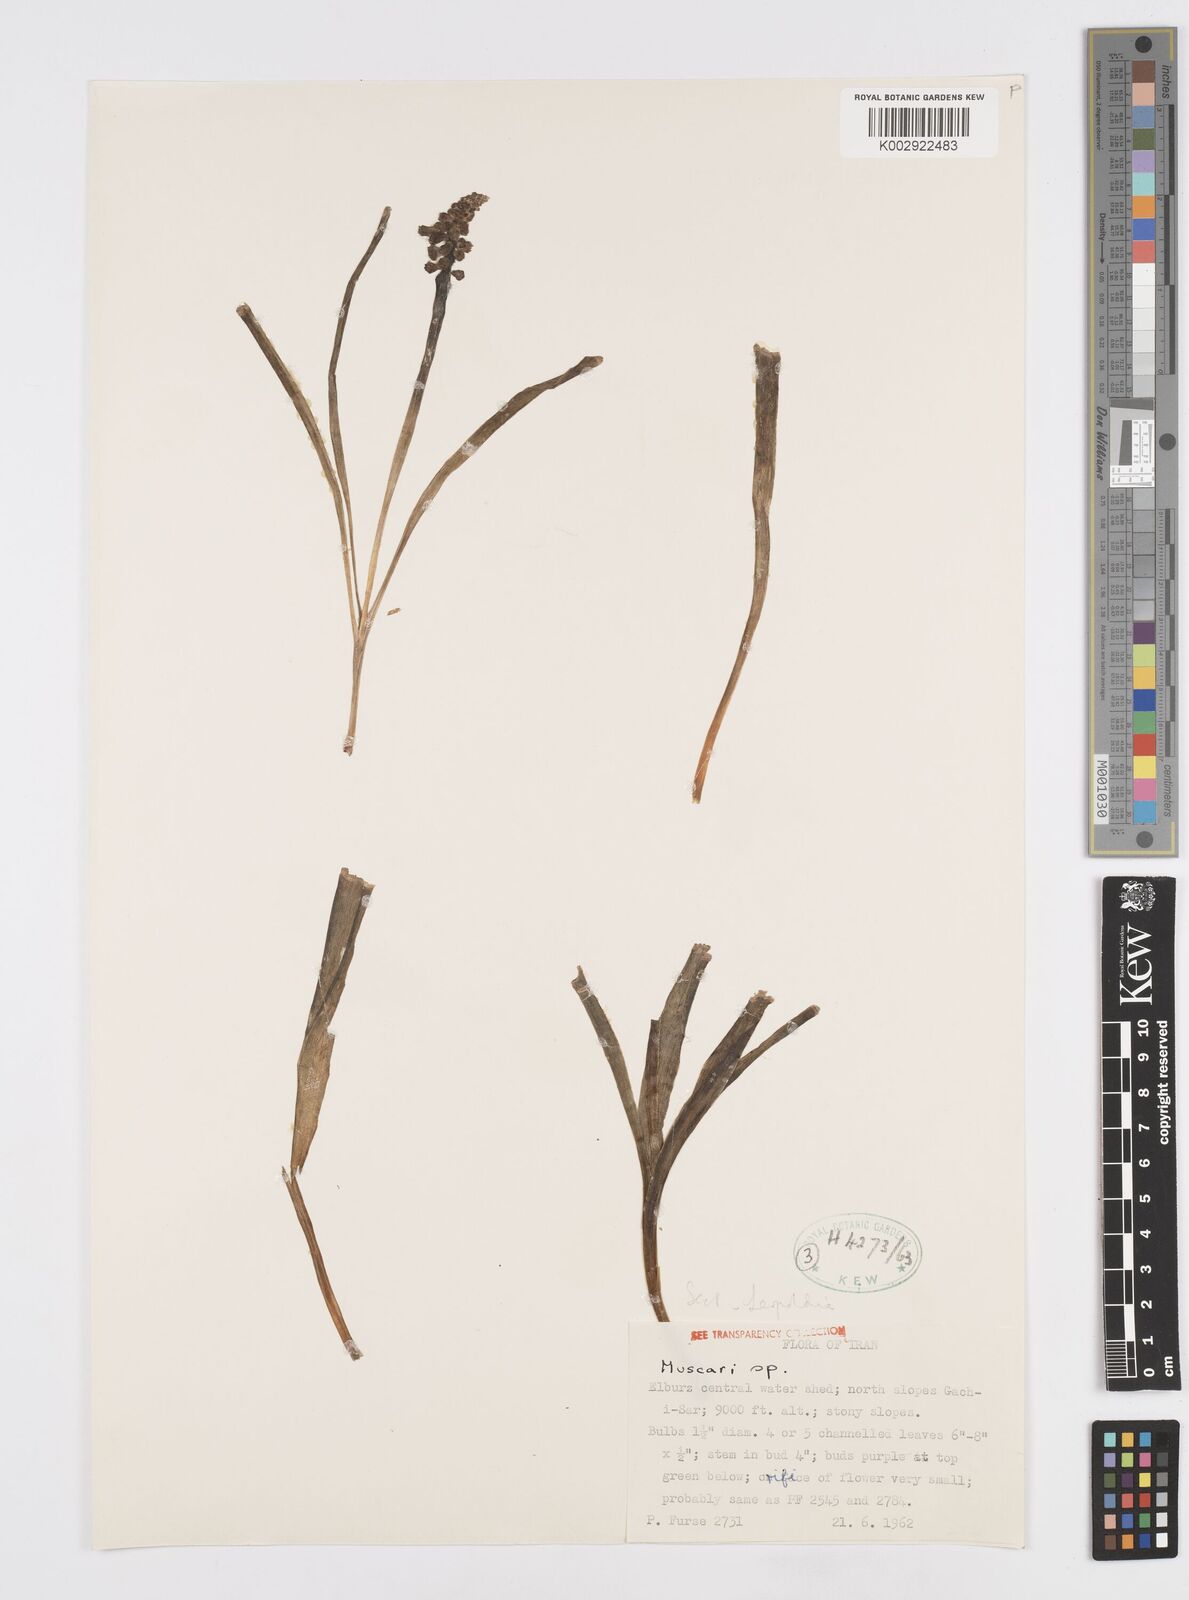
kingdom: Animalia
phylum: Mollusca
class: Cephalopoda
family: Neocomitidae
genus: Leopoldia
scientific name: Leopoldia
